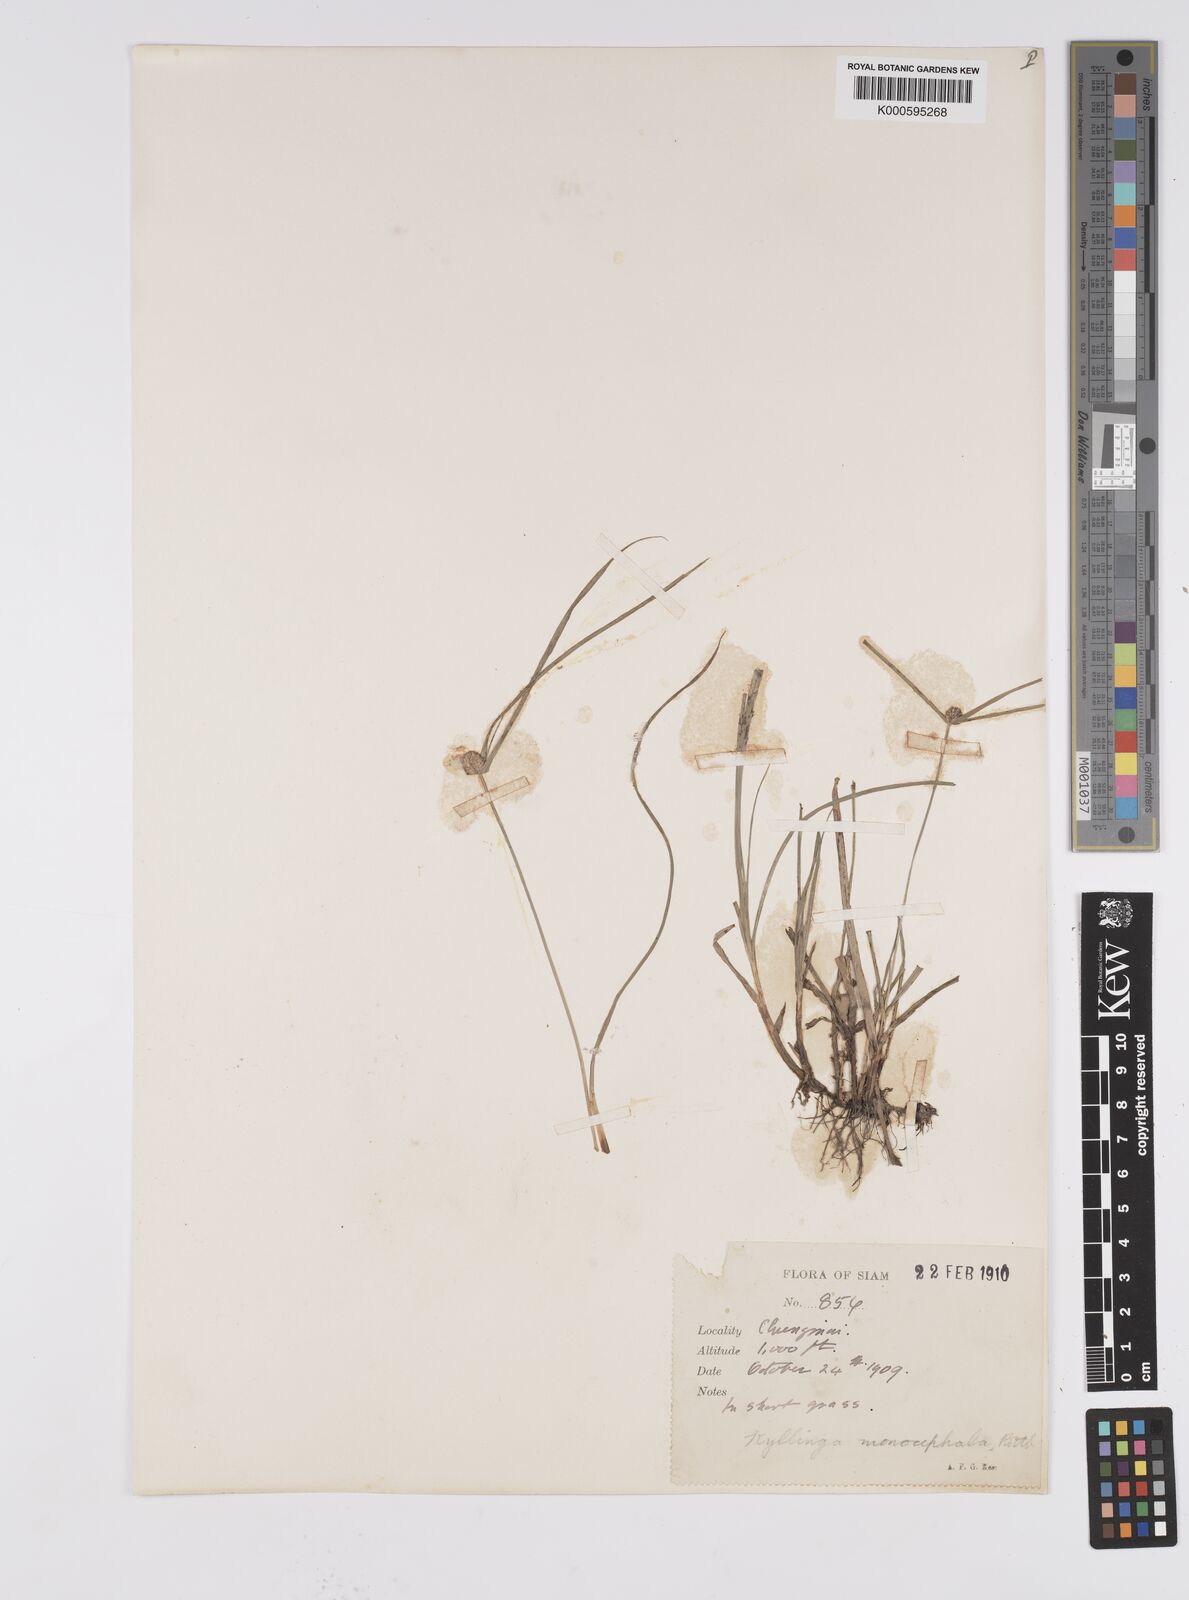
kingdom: Plantae
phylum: Tracheophyta
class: Liliopsida
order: Poales
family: Cyperaceae
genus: Cyperus
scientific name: Cyperus mindorensis
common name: Flatsedge
